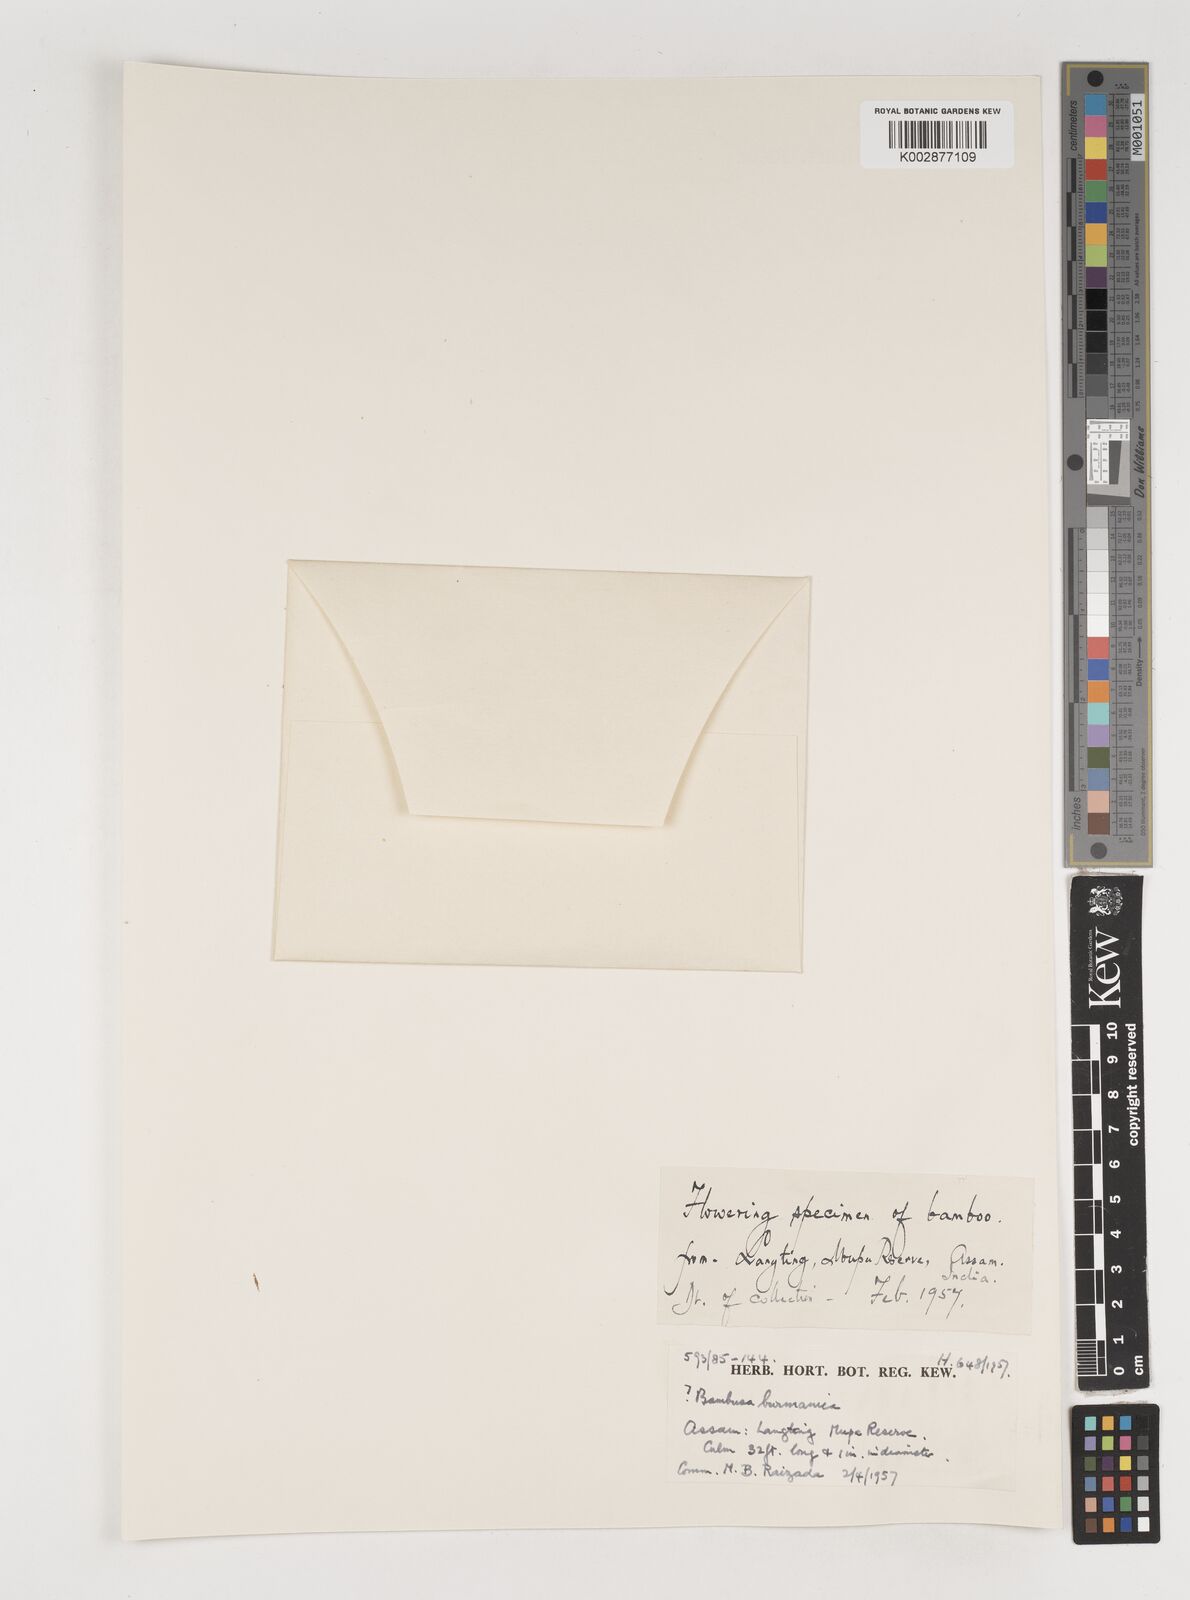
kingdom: Plantae
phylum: Tracheophyta
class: Liliopsida
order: Poales
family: Poaceae
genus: Bambusa
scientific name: Bambusa
